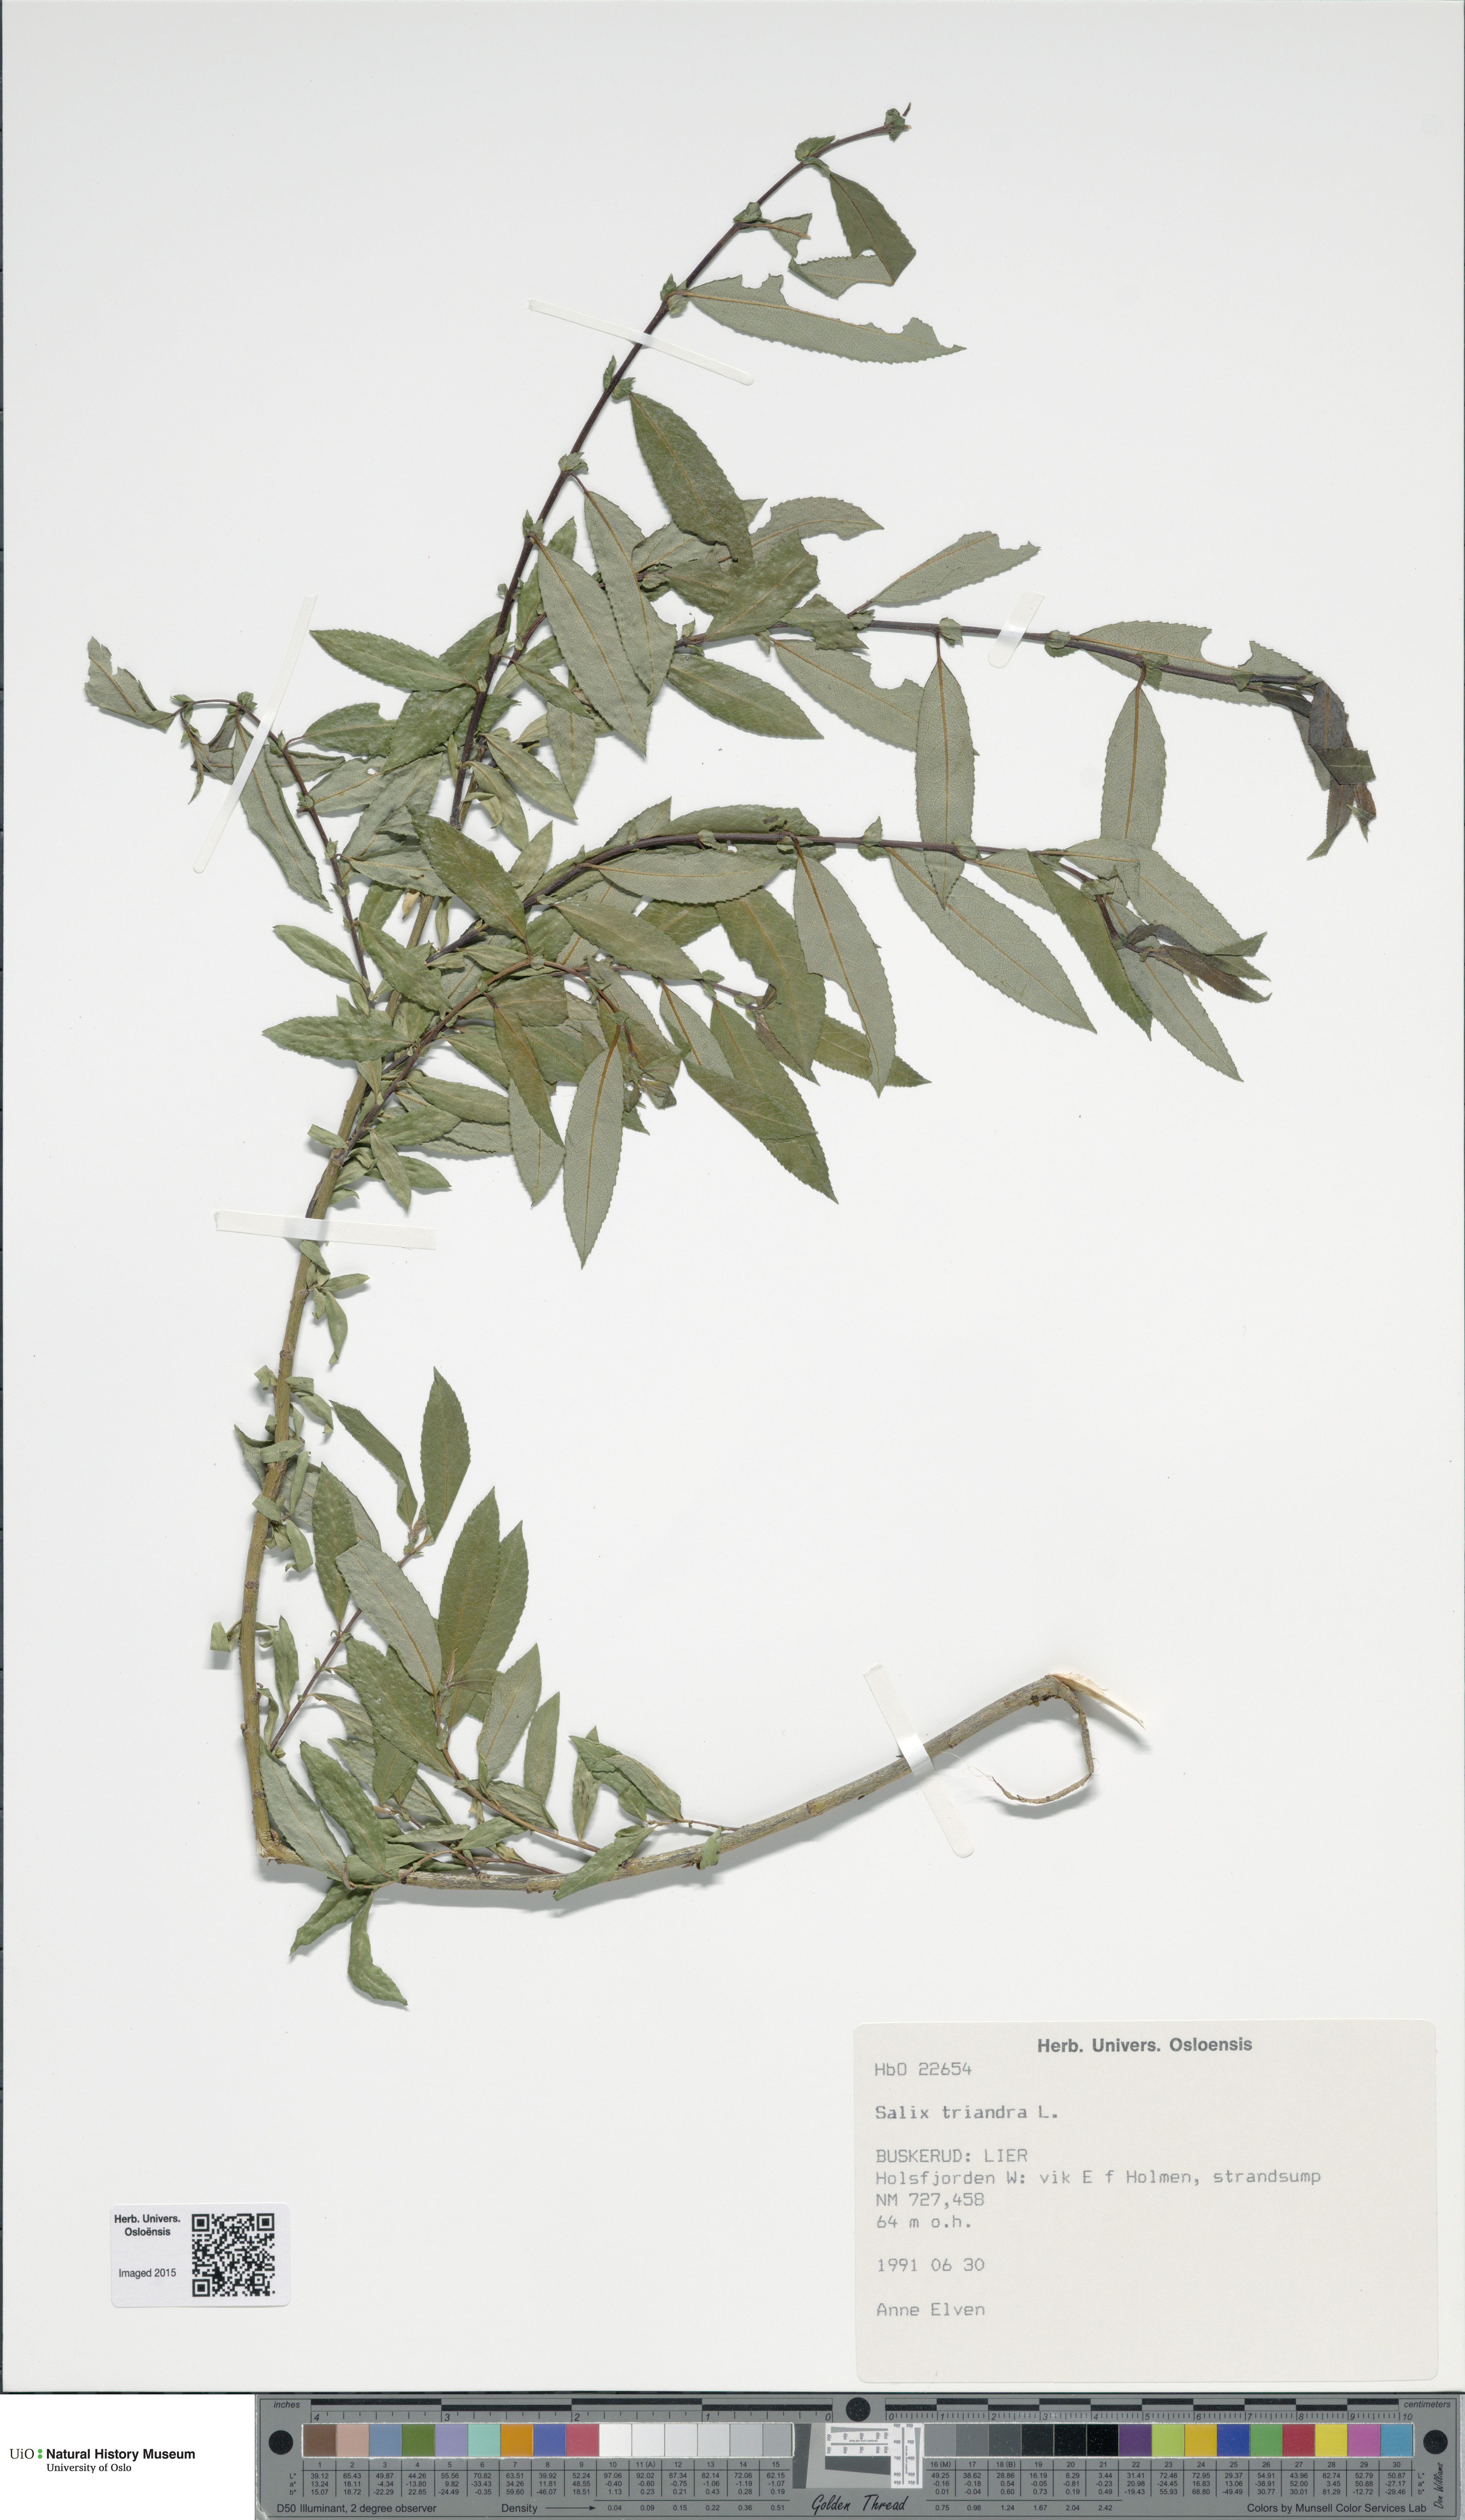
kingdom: Plantae
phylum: Tracheophyta
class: Magnoliopsida
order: Malpighiales
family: Salicaceae
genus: Salix
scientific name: Salix triandra
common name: Almond willow
